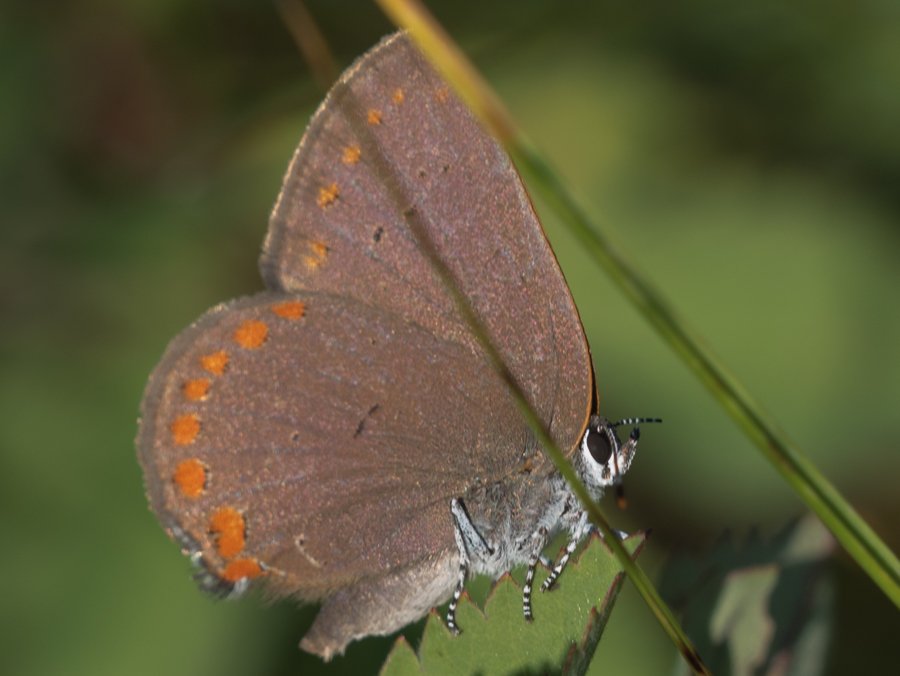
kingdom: Animalia
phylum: Arthropoda
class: Insecta
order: Lepidoptera
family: Lycaenidae
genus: Harkenclenus
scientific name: Harkenclenus titus
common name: Coral Hairstreak
